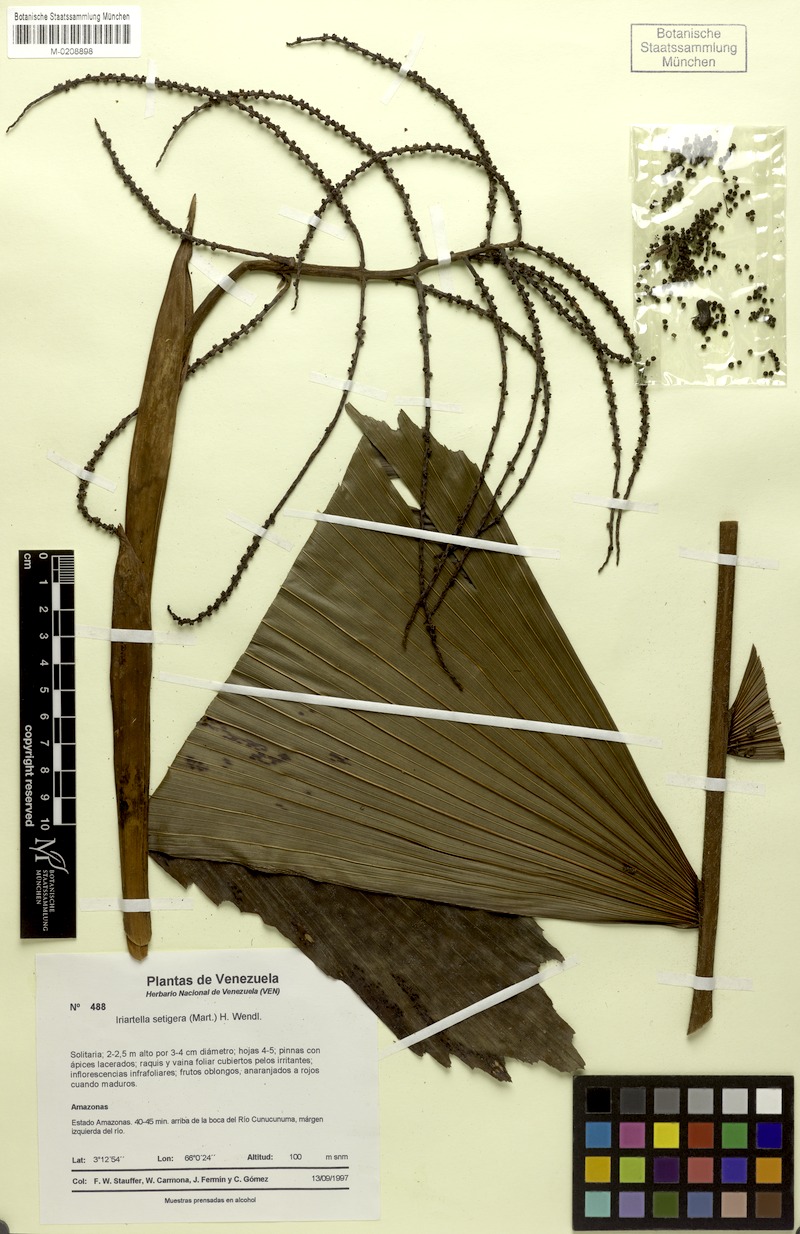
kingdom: Plantae
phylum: Tracheophyta
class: Liliopsida
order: Arecales
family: Arecaceae
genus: Iriartella
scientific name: Iriartella setigera
